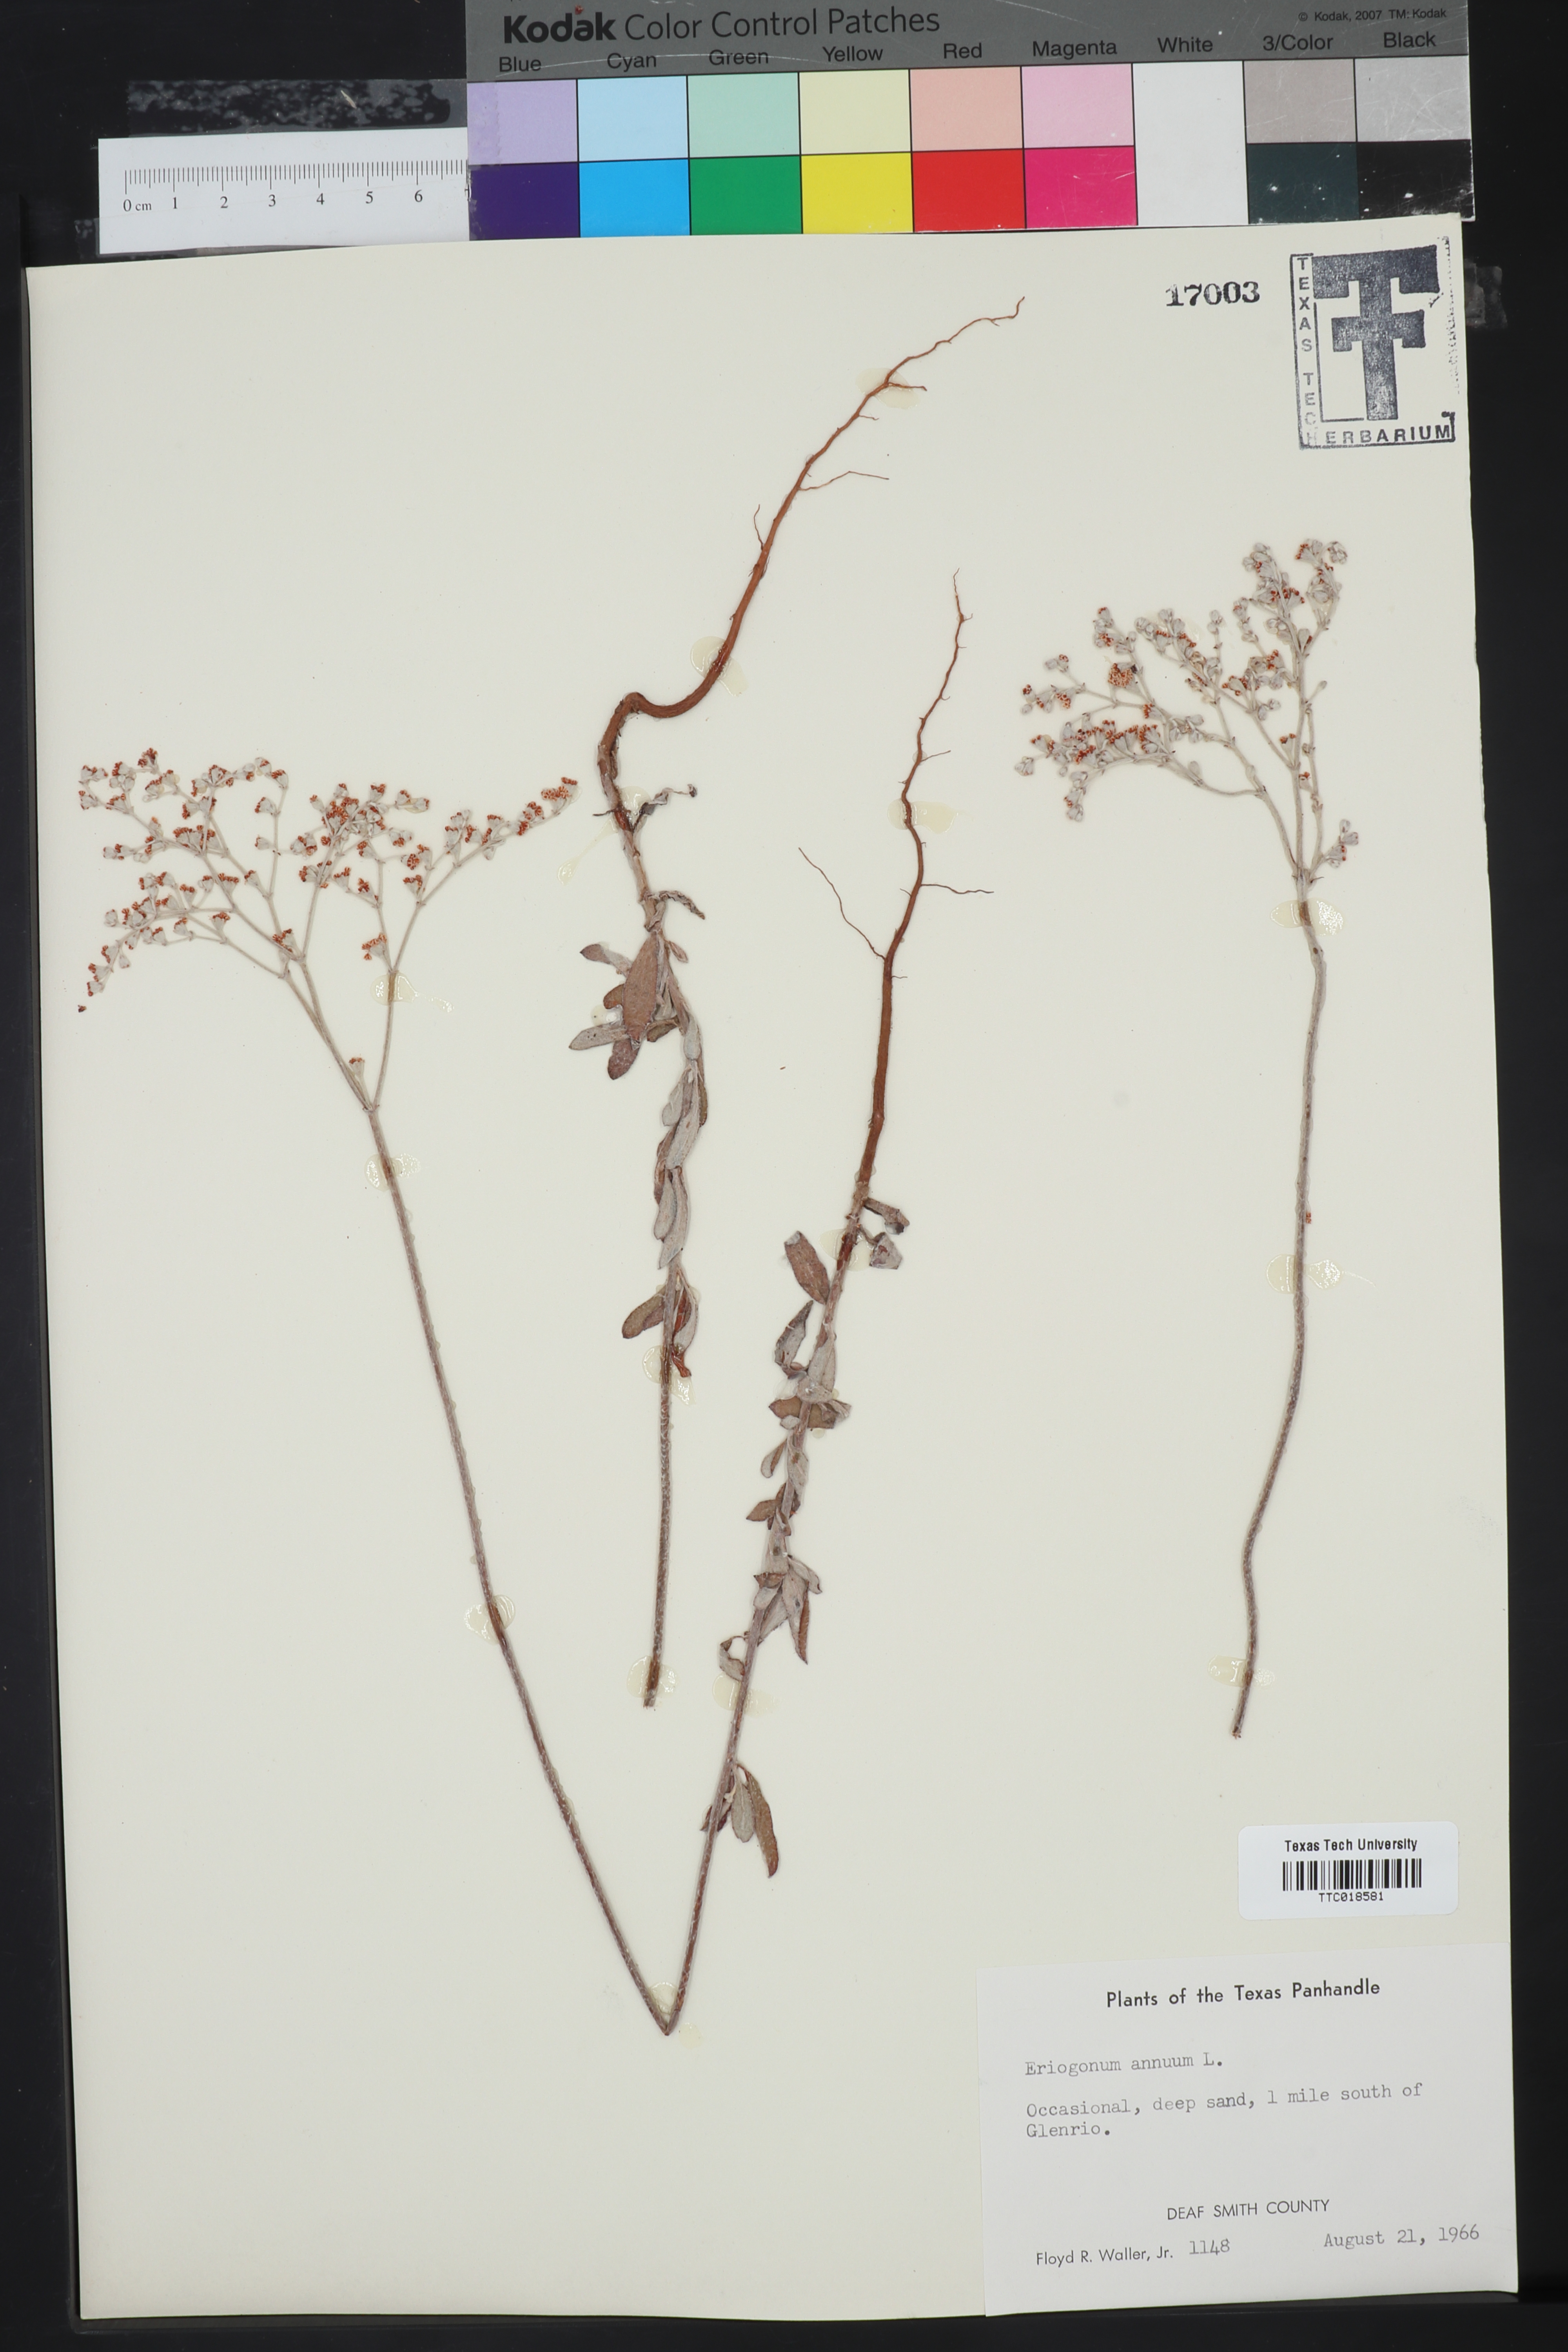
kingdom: Plantae
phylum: Tracheophyta
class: Magnoliopsida
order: Caryophyllales
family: Polygonaceae
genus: Eriogonum
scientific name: Eriogonum annuum
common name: Annual wild buckwheat
